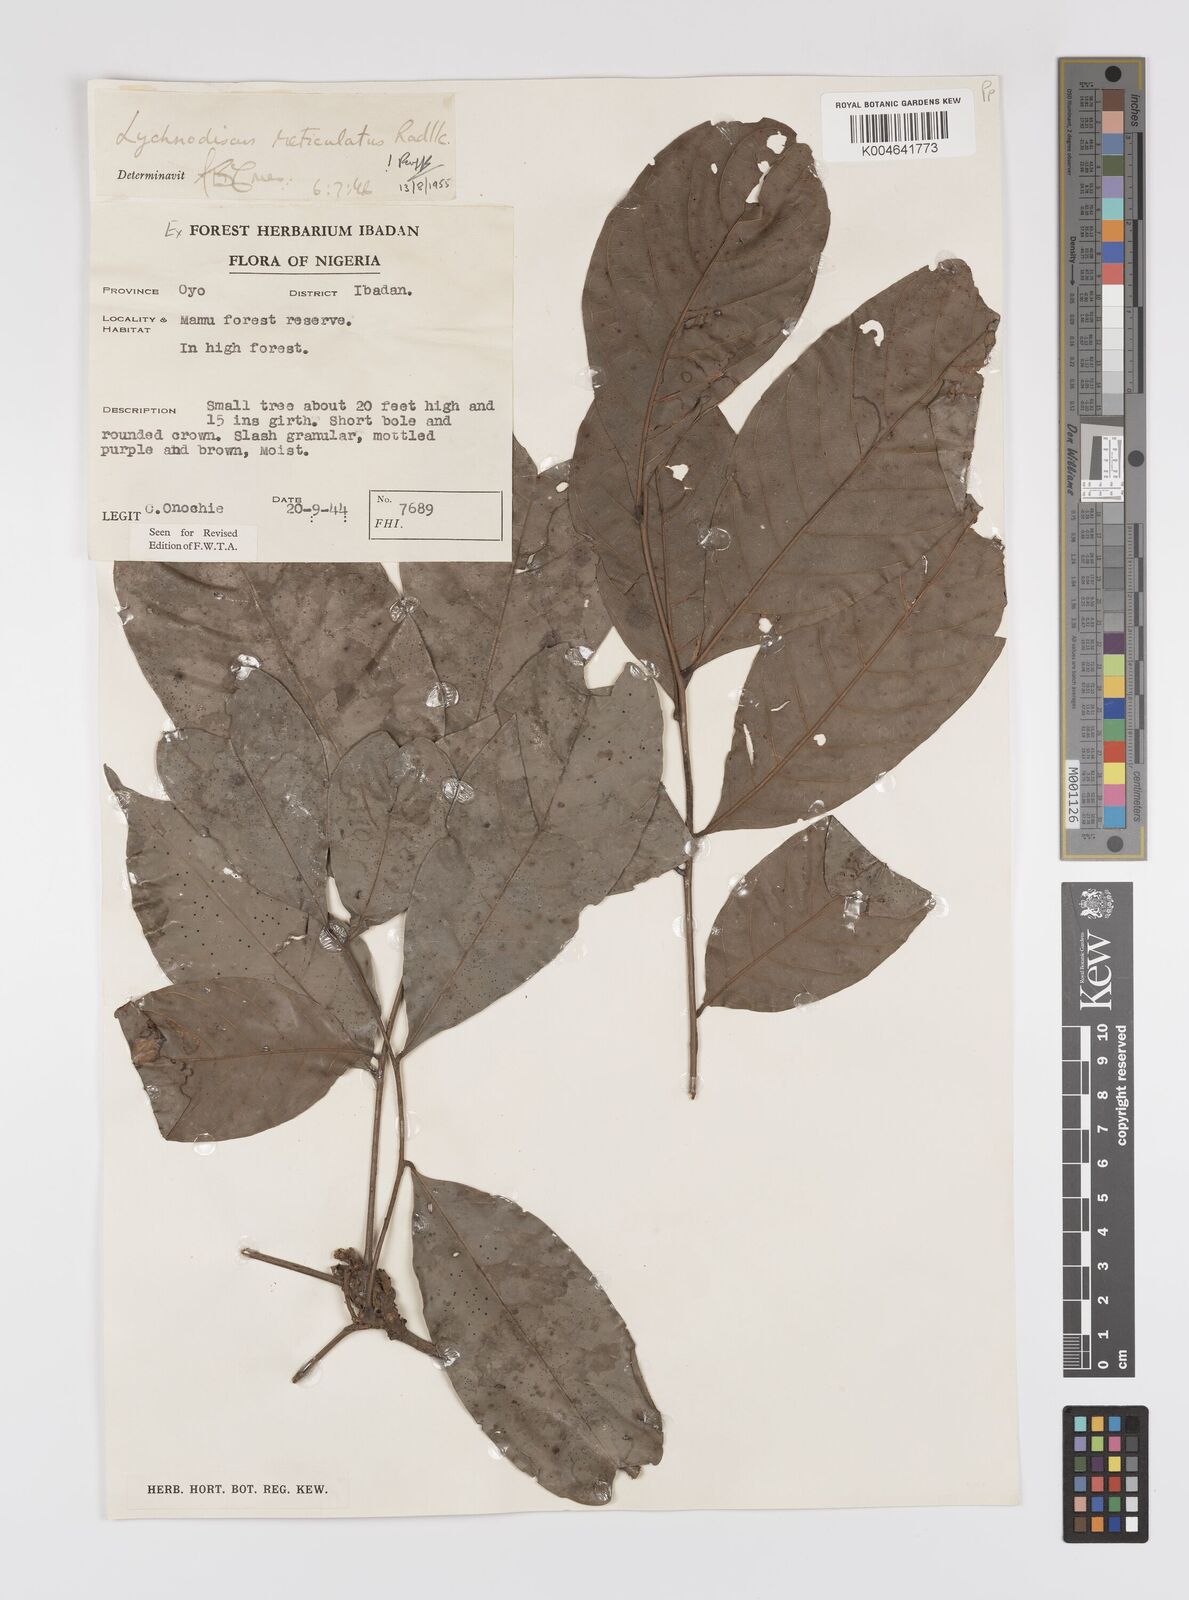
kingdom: Plantae
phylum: Tracheophyta
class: Magnoliopsida
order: Sapindales
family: Sapindaceae
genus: Lychnodiscus
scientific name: Lychnodiscus reticulatus
